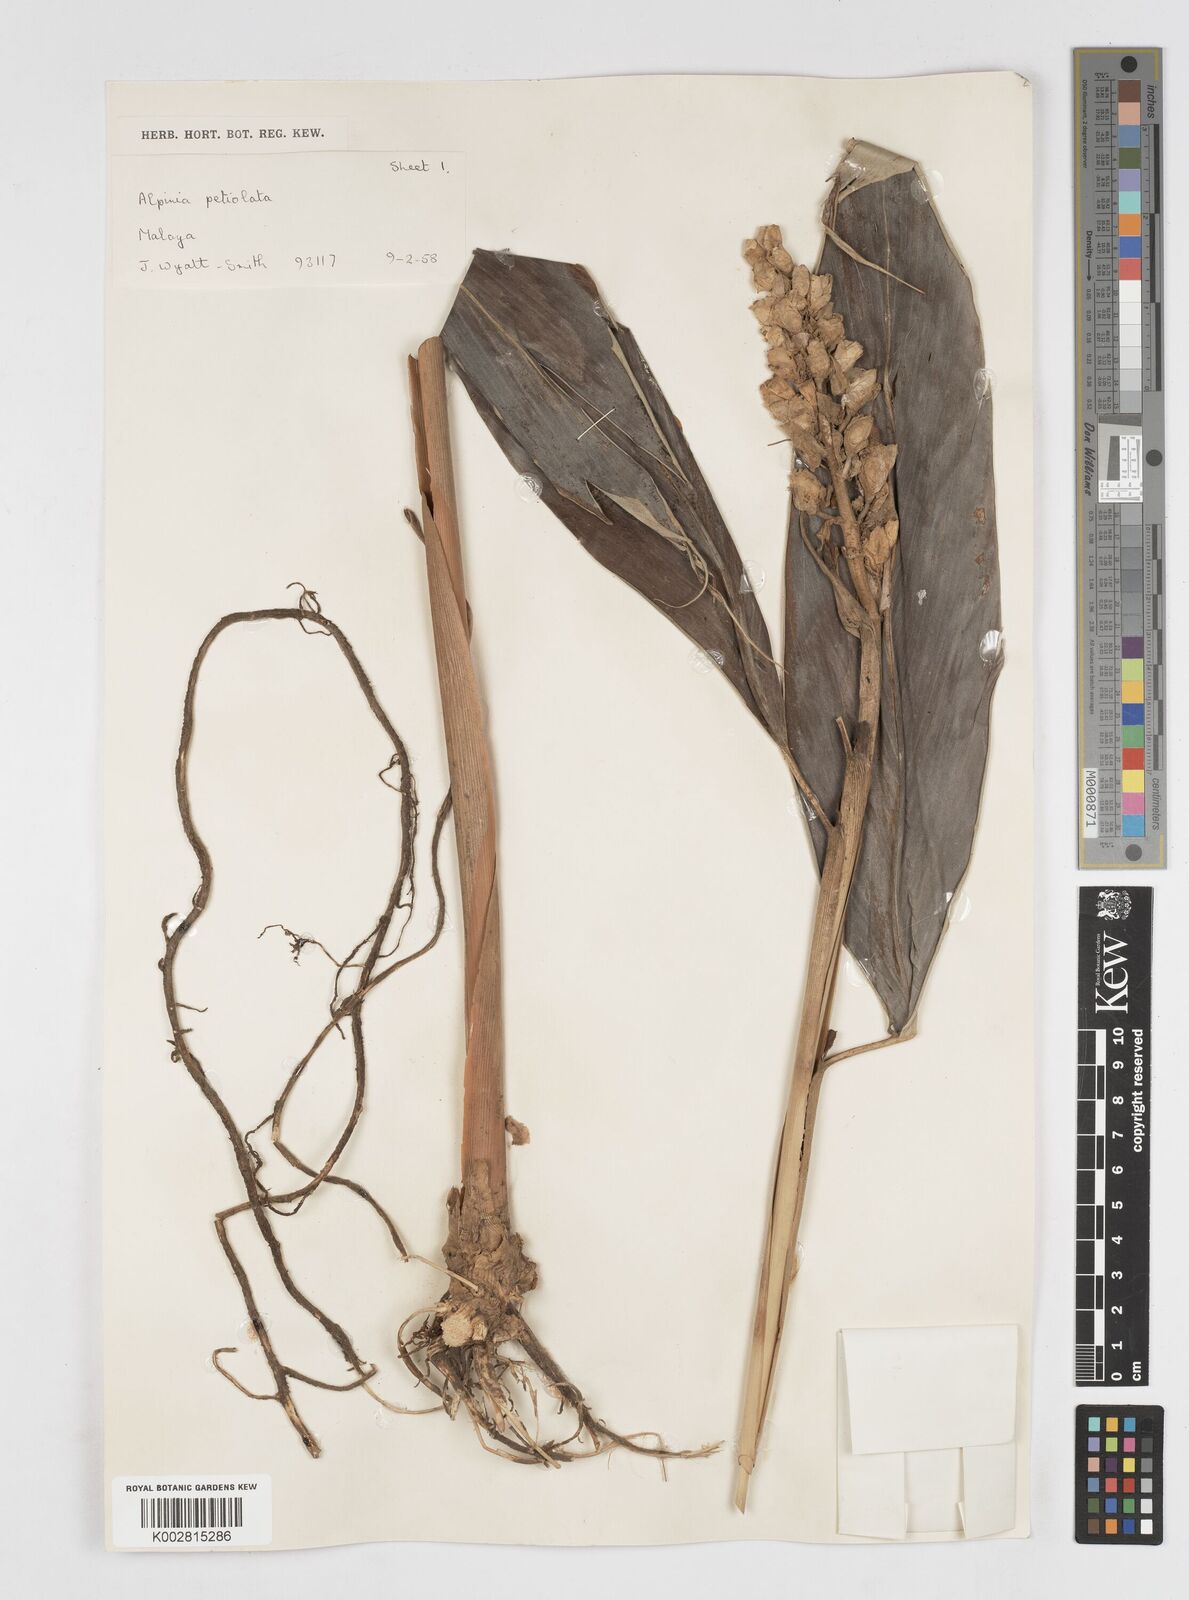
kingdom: Plantae
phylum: Tracheophyta
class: Liliopsida
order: Zingiberales
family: Zingiberaceae
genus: Alpinia
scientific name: Alpinia petiolata
